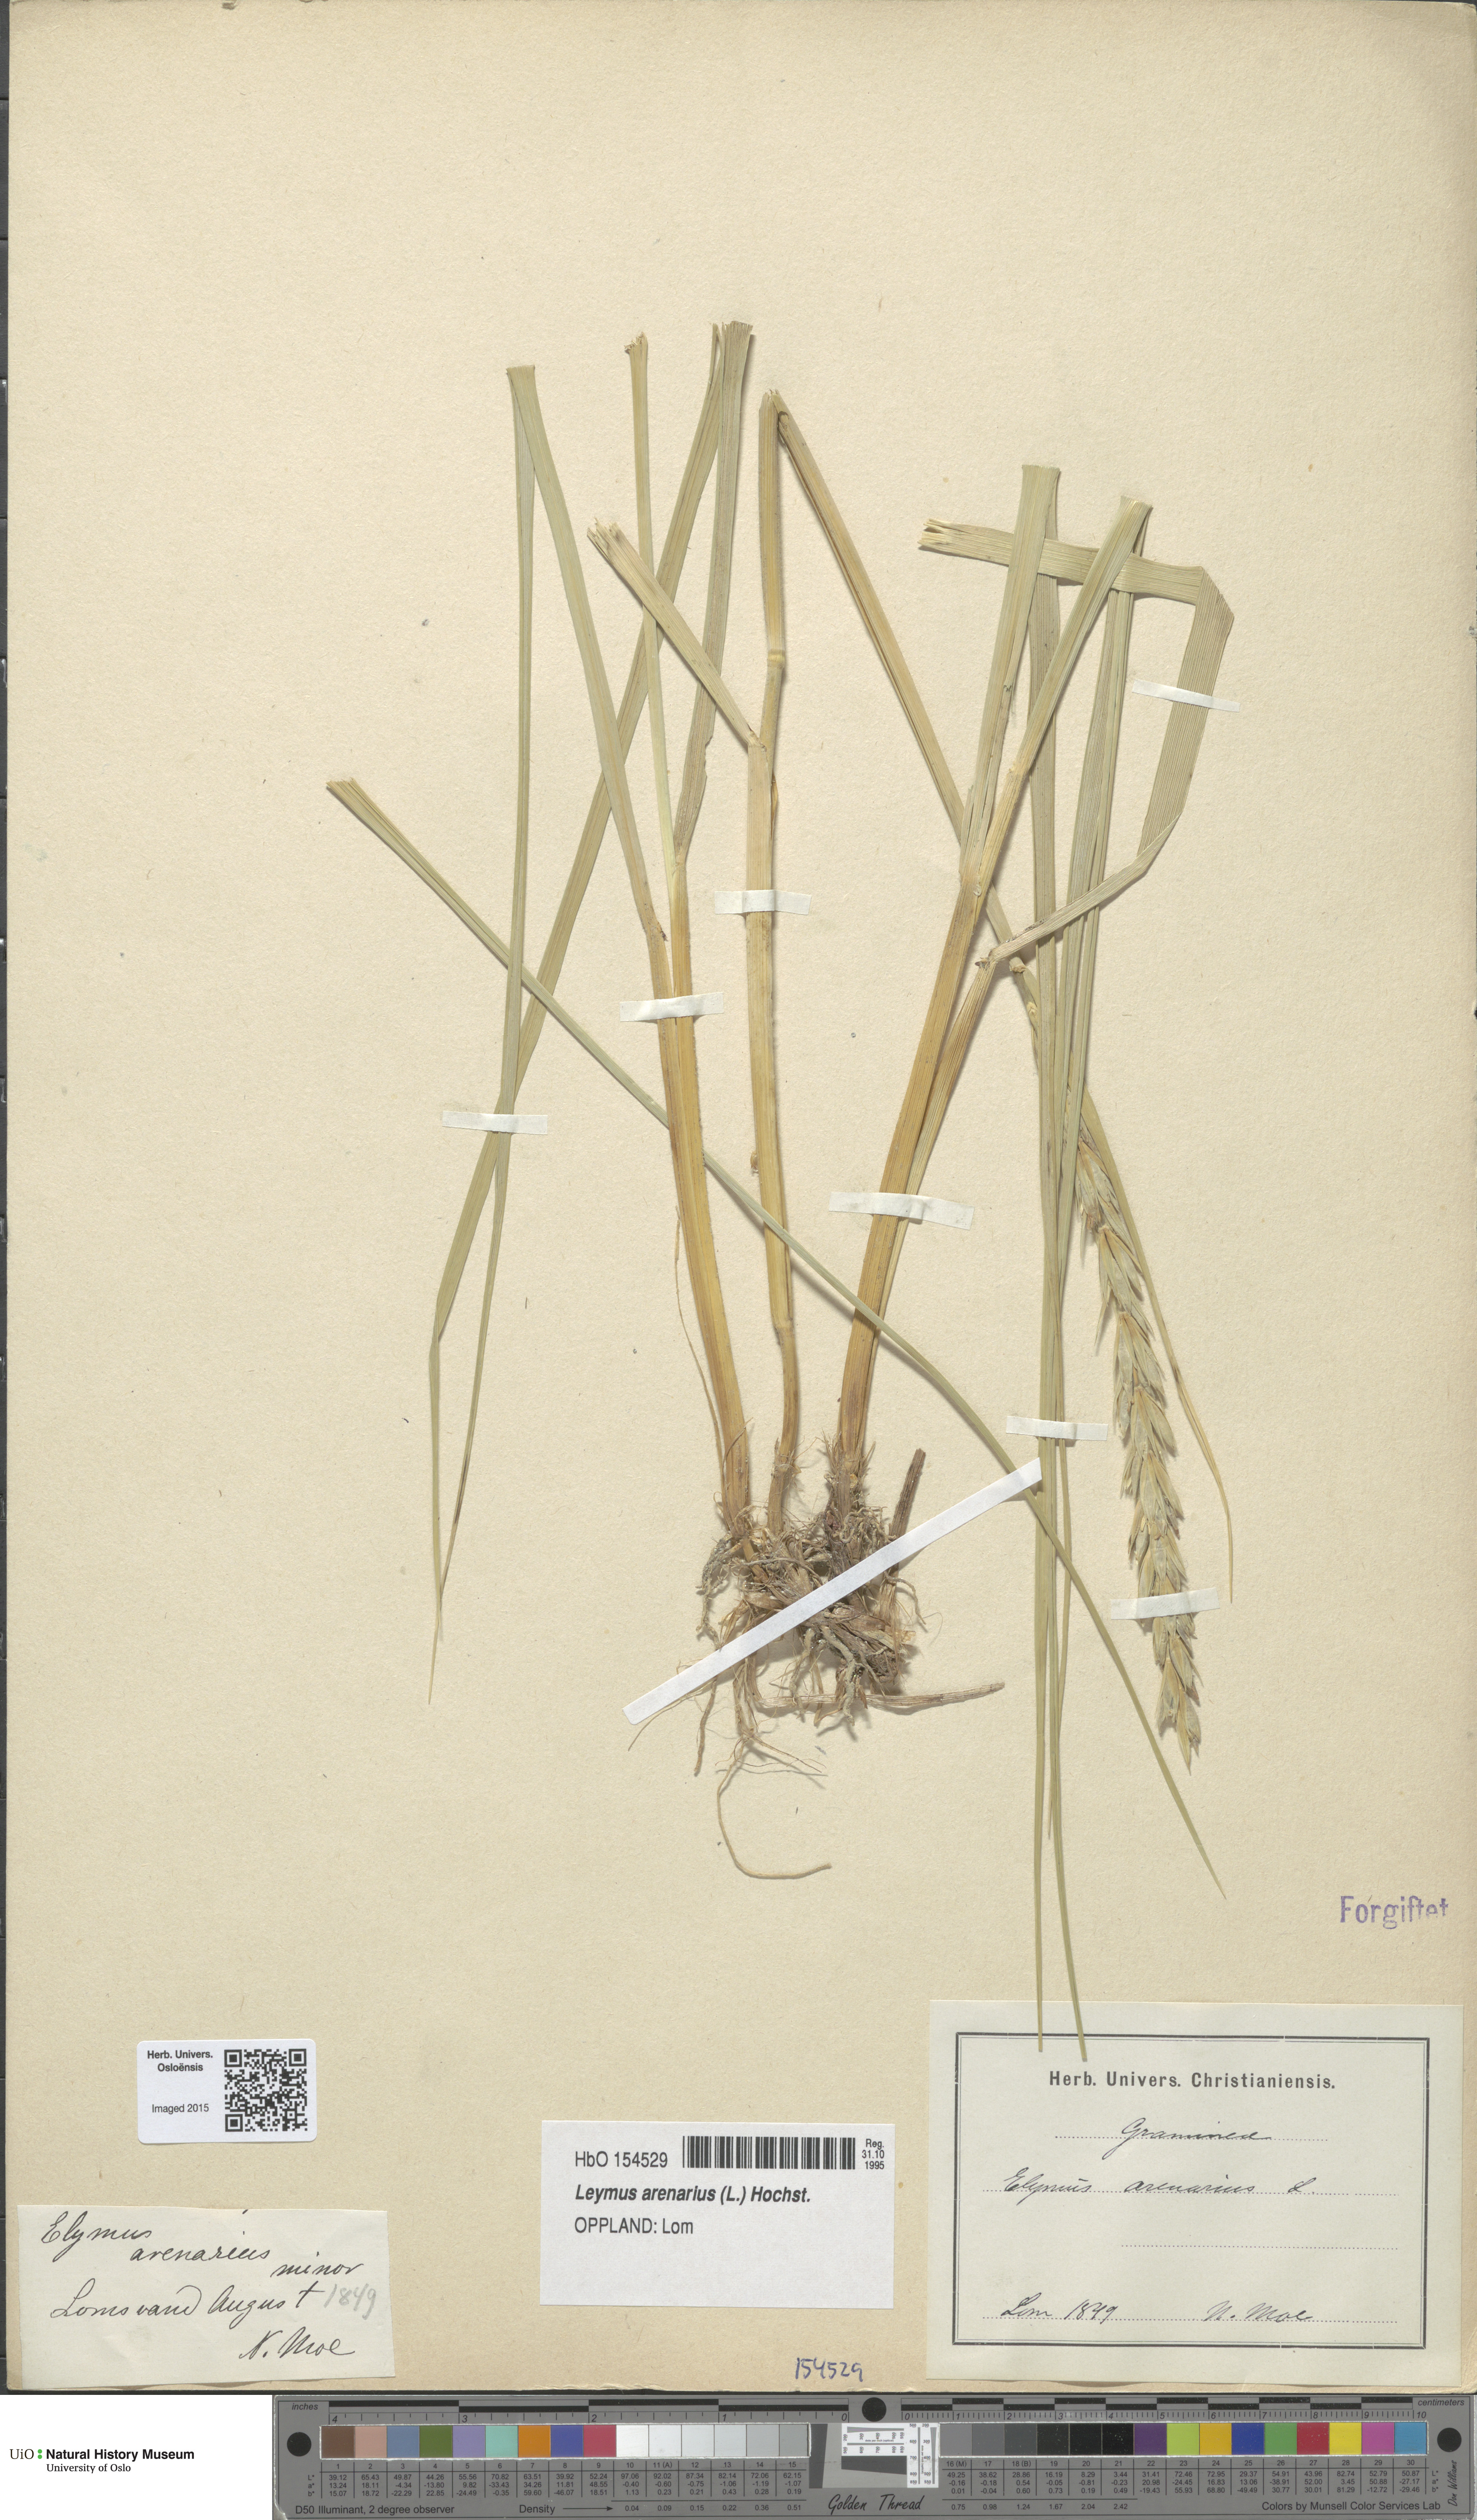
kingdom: Plantae
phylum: Tracheophyta
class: Liliopsida
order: Poales
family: Poaceae
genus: Leymus
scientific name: Leymus arenarius
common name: Lyme-grass
